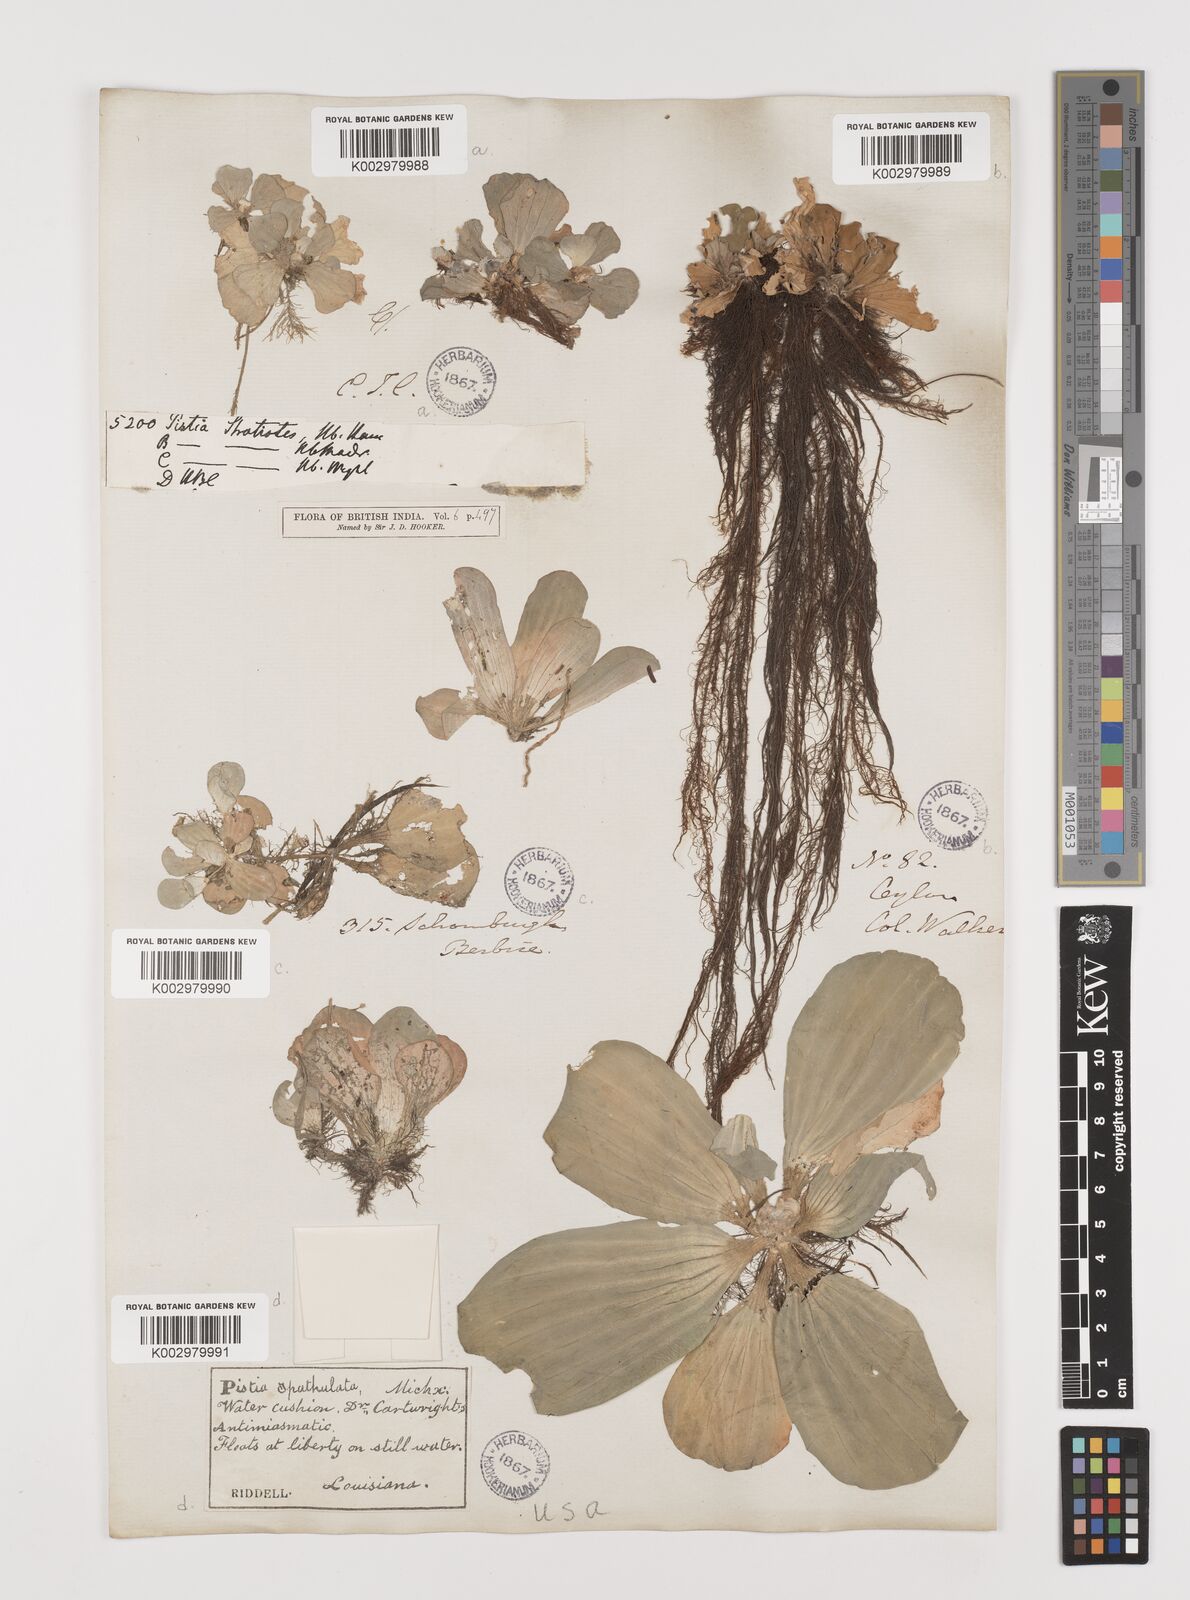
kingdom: Plantae
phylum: Tracheophyta
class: Liliopsida
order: Alismatales
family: Araceae
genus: Pistia
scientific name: Pistia stratiotes
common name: Water lettuce
